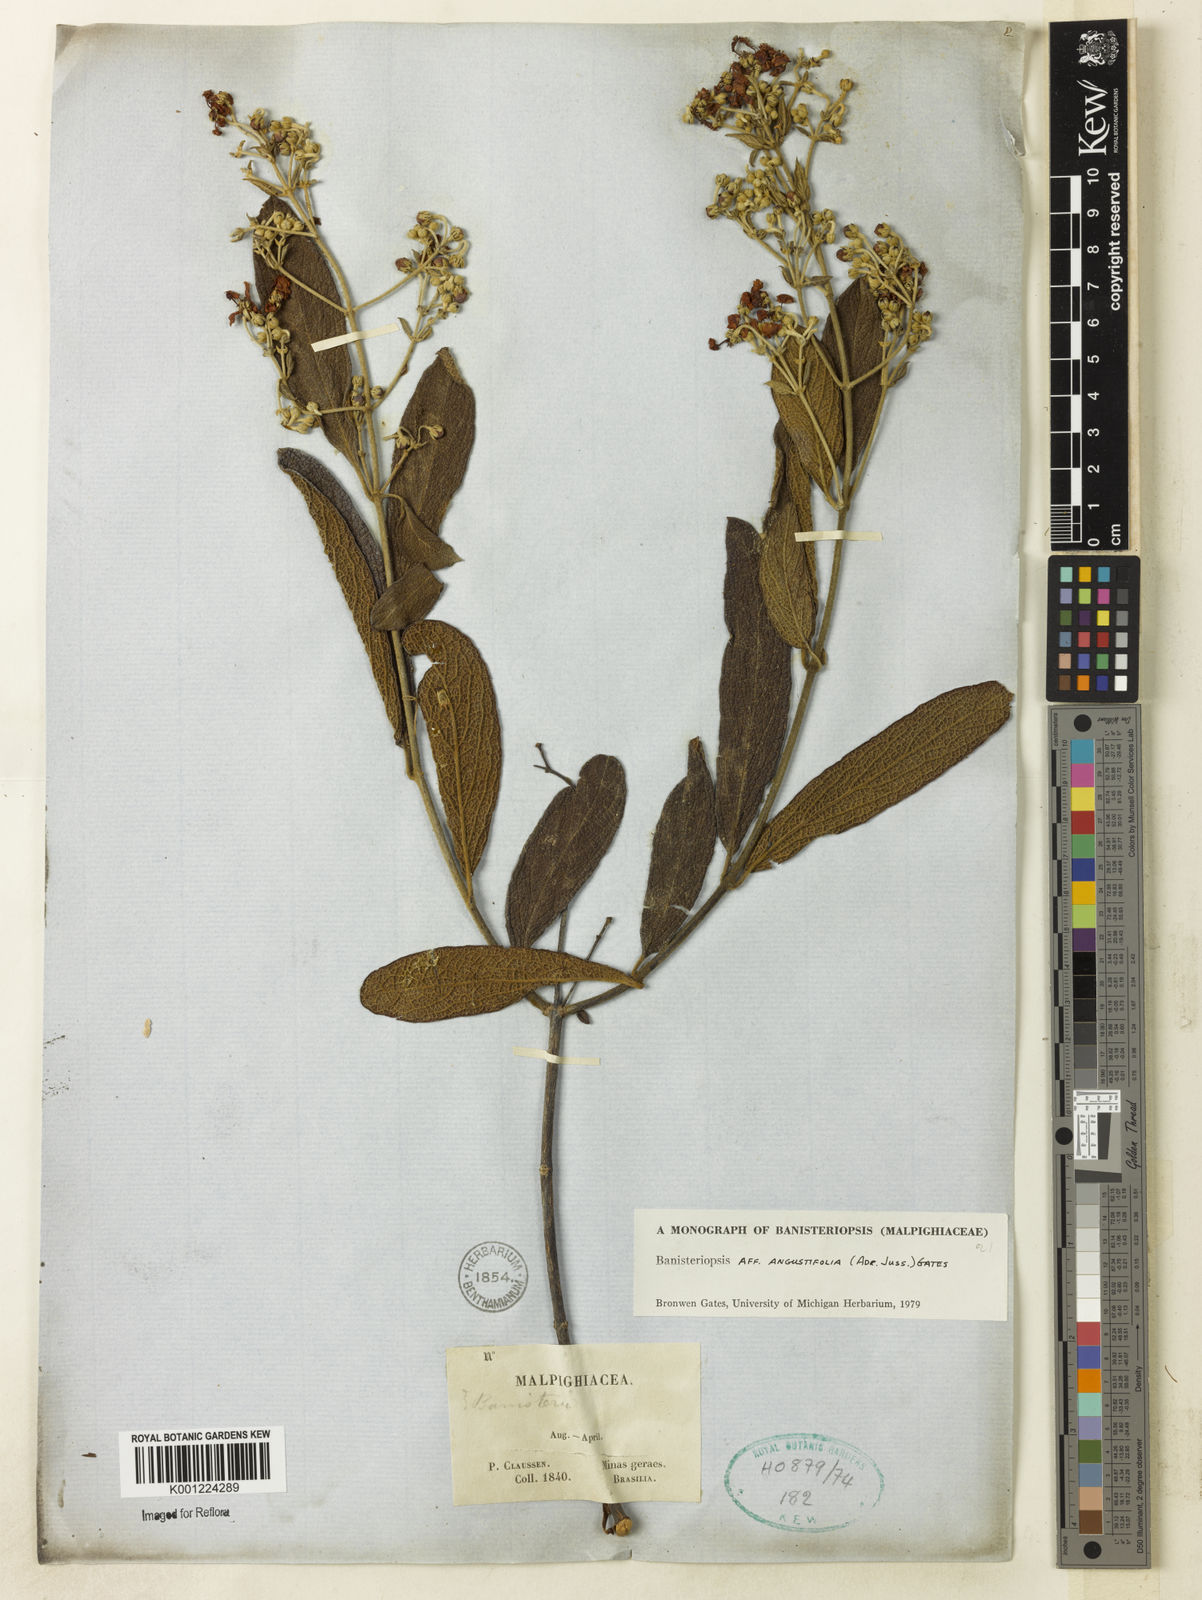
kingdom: Plantae
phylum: Tracheophyta
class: Magnoliopsida
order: Malpighiales
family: Malpighiaceae
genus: Banisteriopsis
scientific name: Banisteriopsis angustifolia
